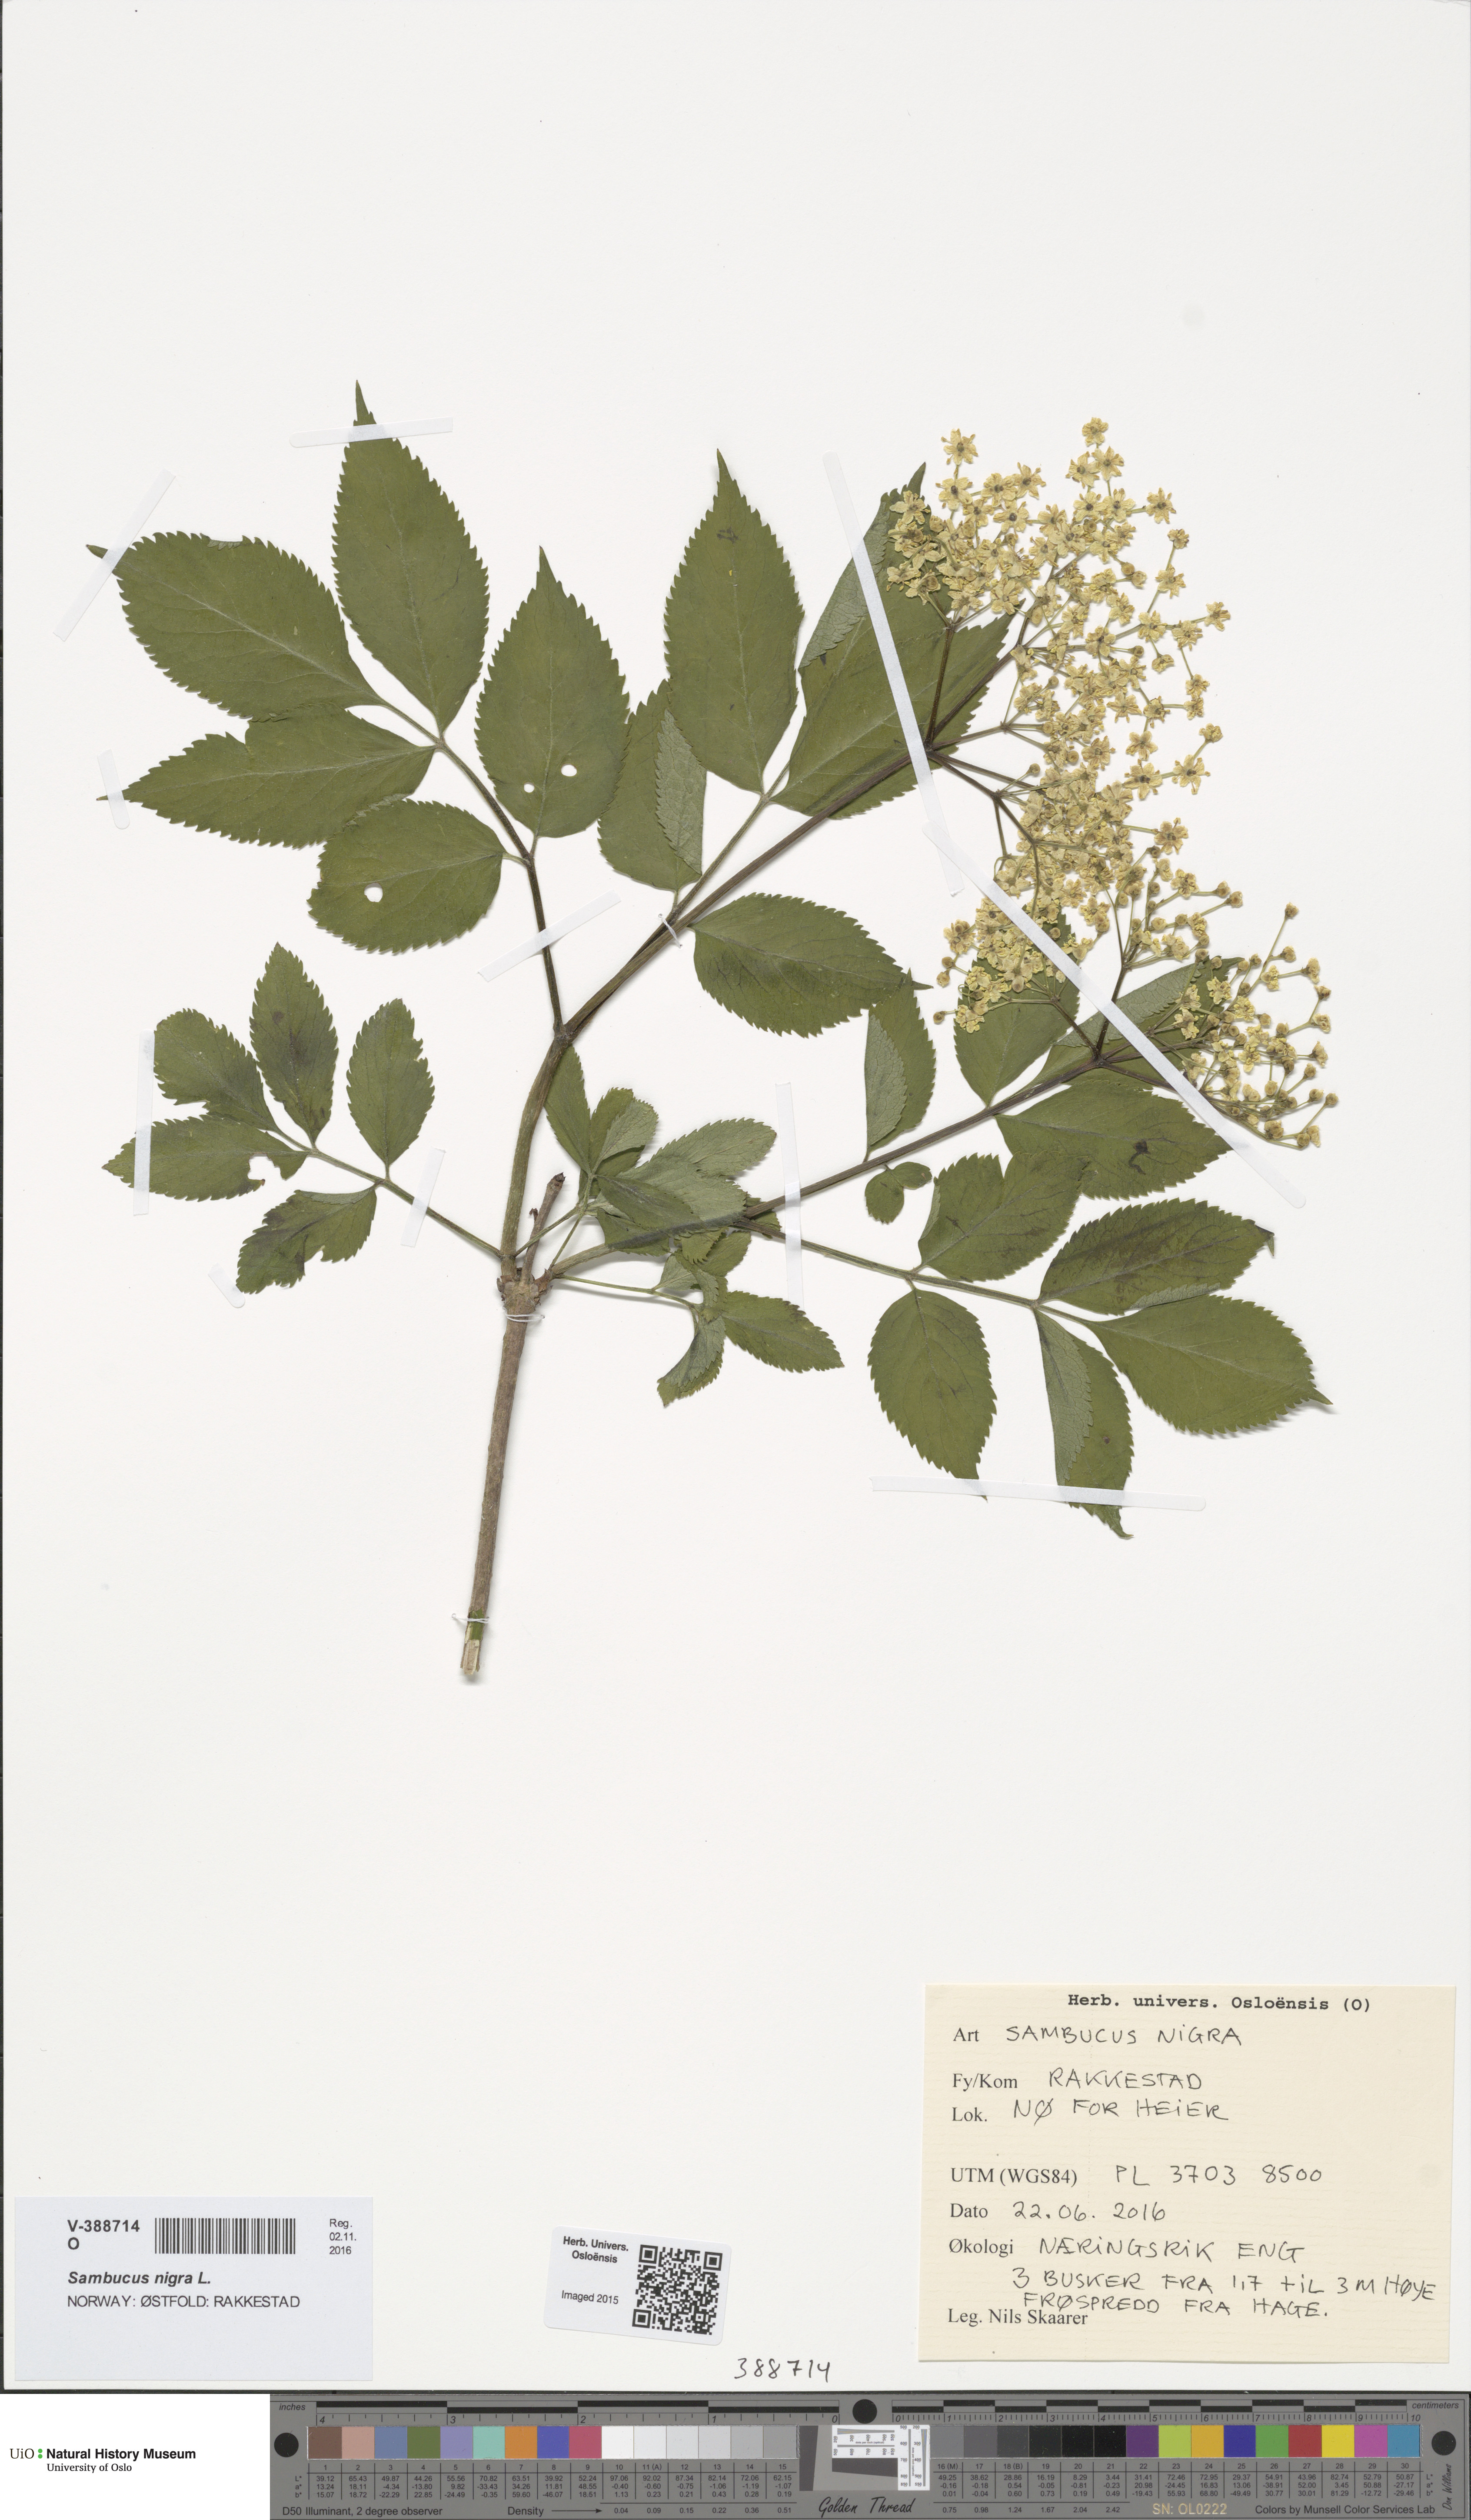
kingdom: Plantae
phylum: Tracheophyta
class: Magnoliopsida
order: Dipsacales
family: Viburnaceae
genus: Sambucus
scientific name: Sambucus nigra
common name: Elder
